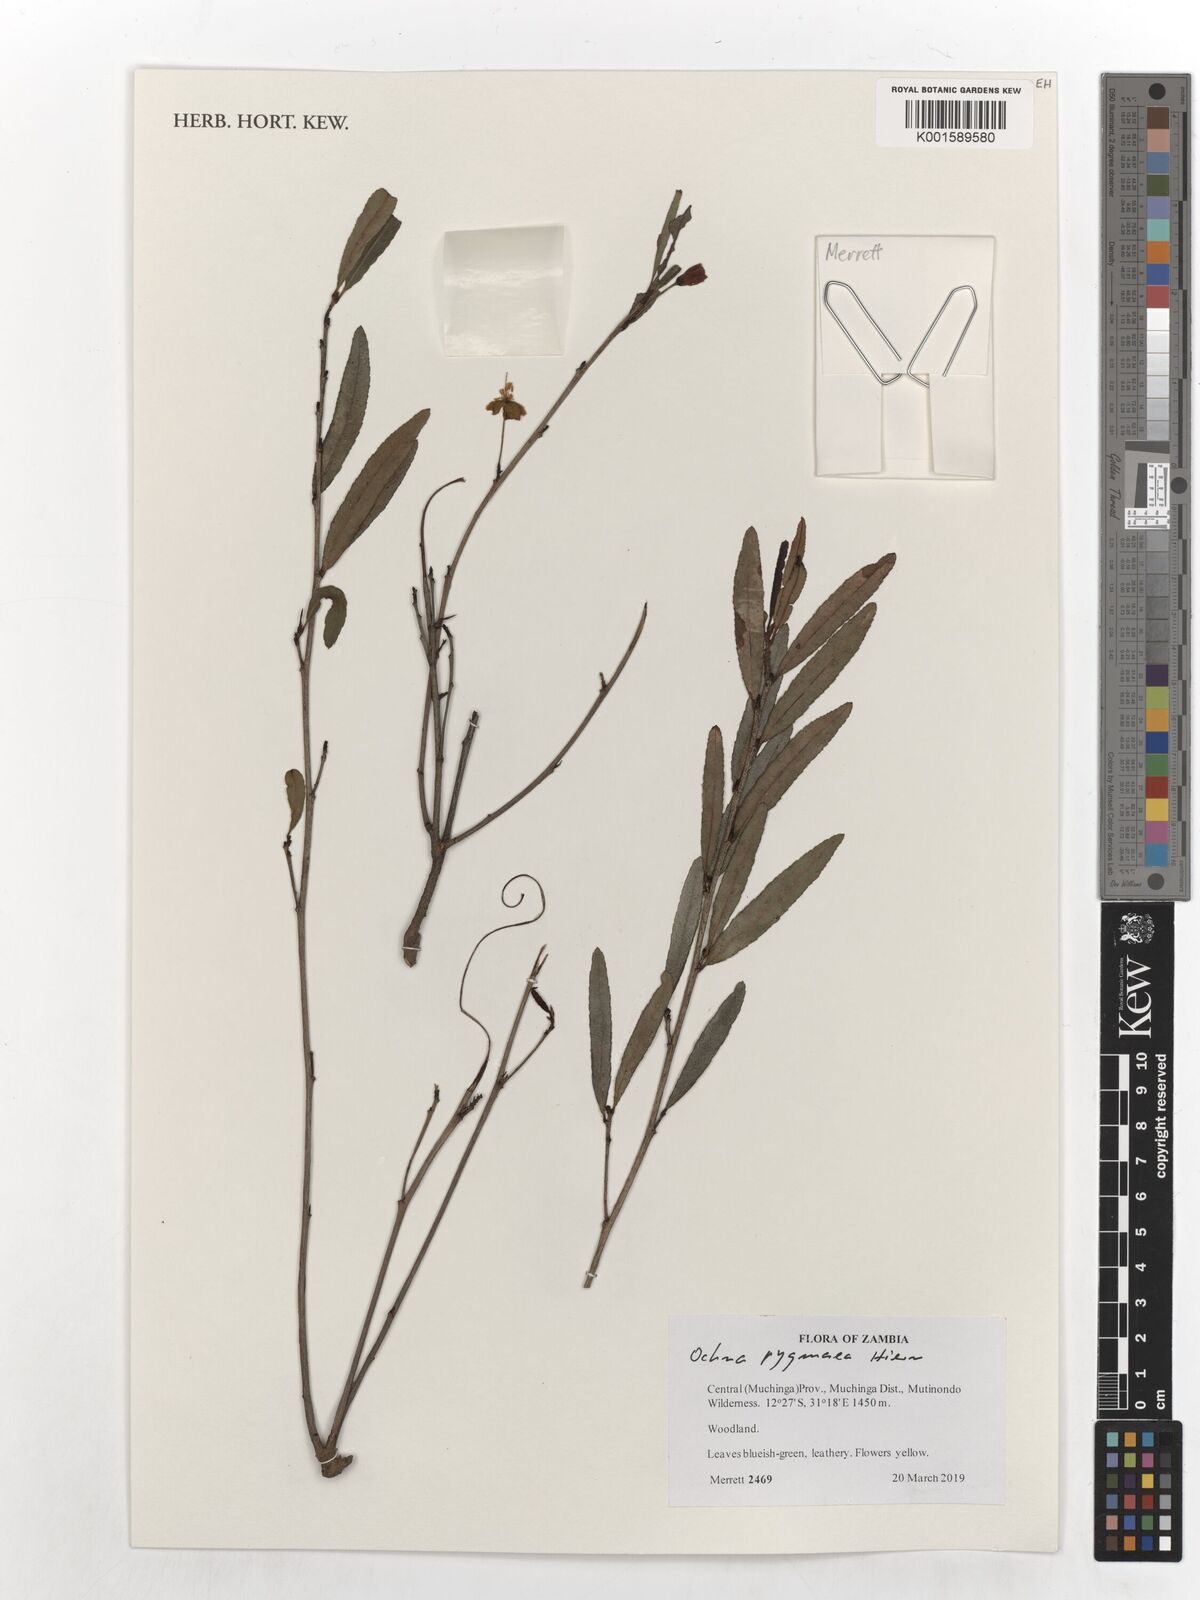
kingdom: Plantae
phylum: Tracheophyta
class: Magnoliopsida
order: Malpighiales
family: Ochnaceae
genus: Ochna
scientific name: Ochna pygmaea
